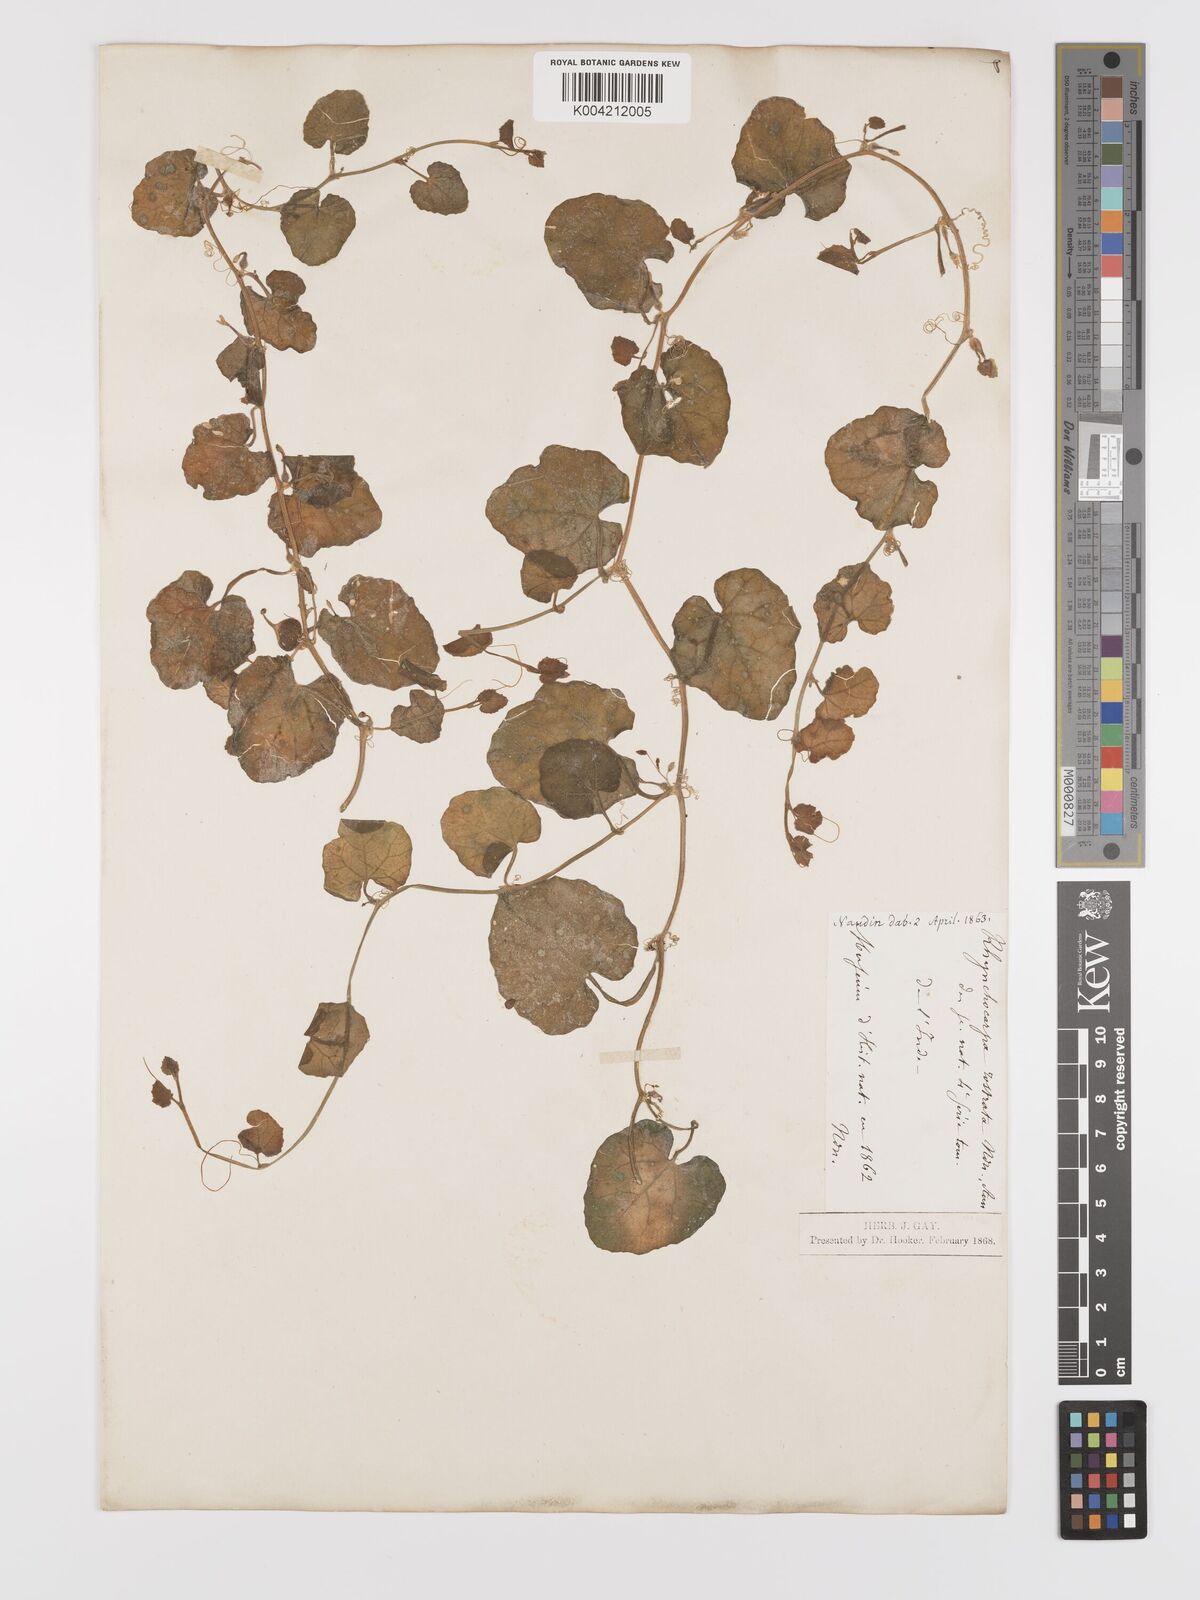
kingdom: Plantae
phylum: Tracheophyta
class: Magnoliopsida
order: Cucurbitales
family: Cucurbitaceae
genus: Kedrostis
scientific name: Kedrostis foetidissima
